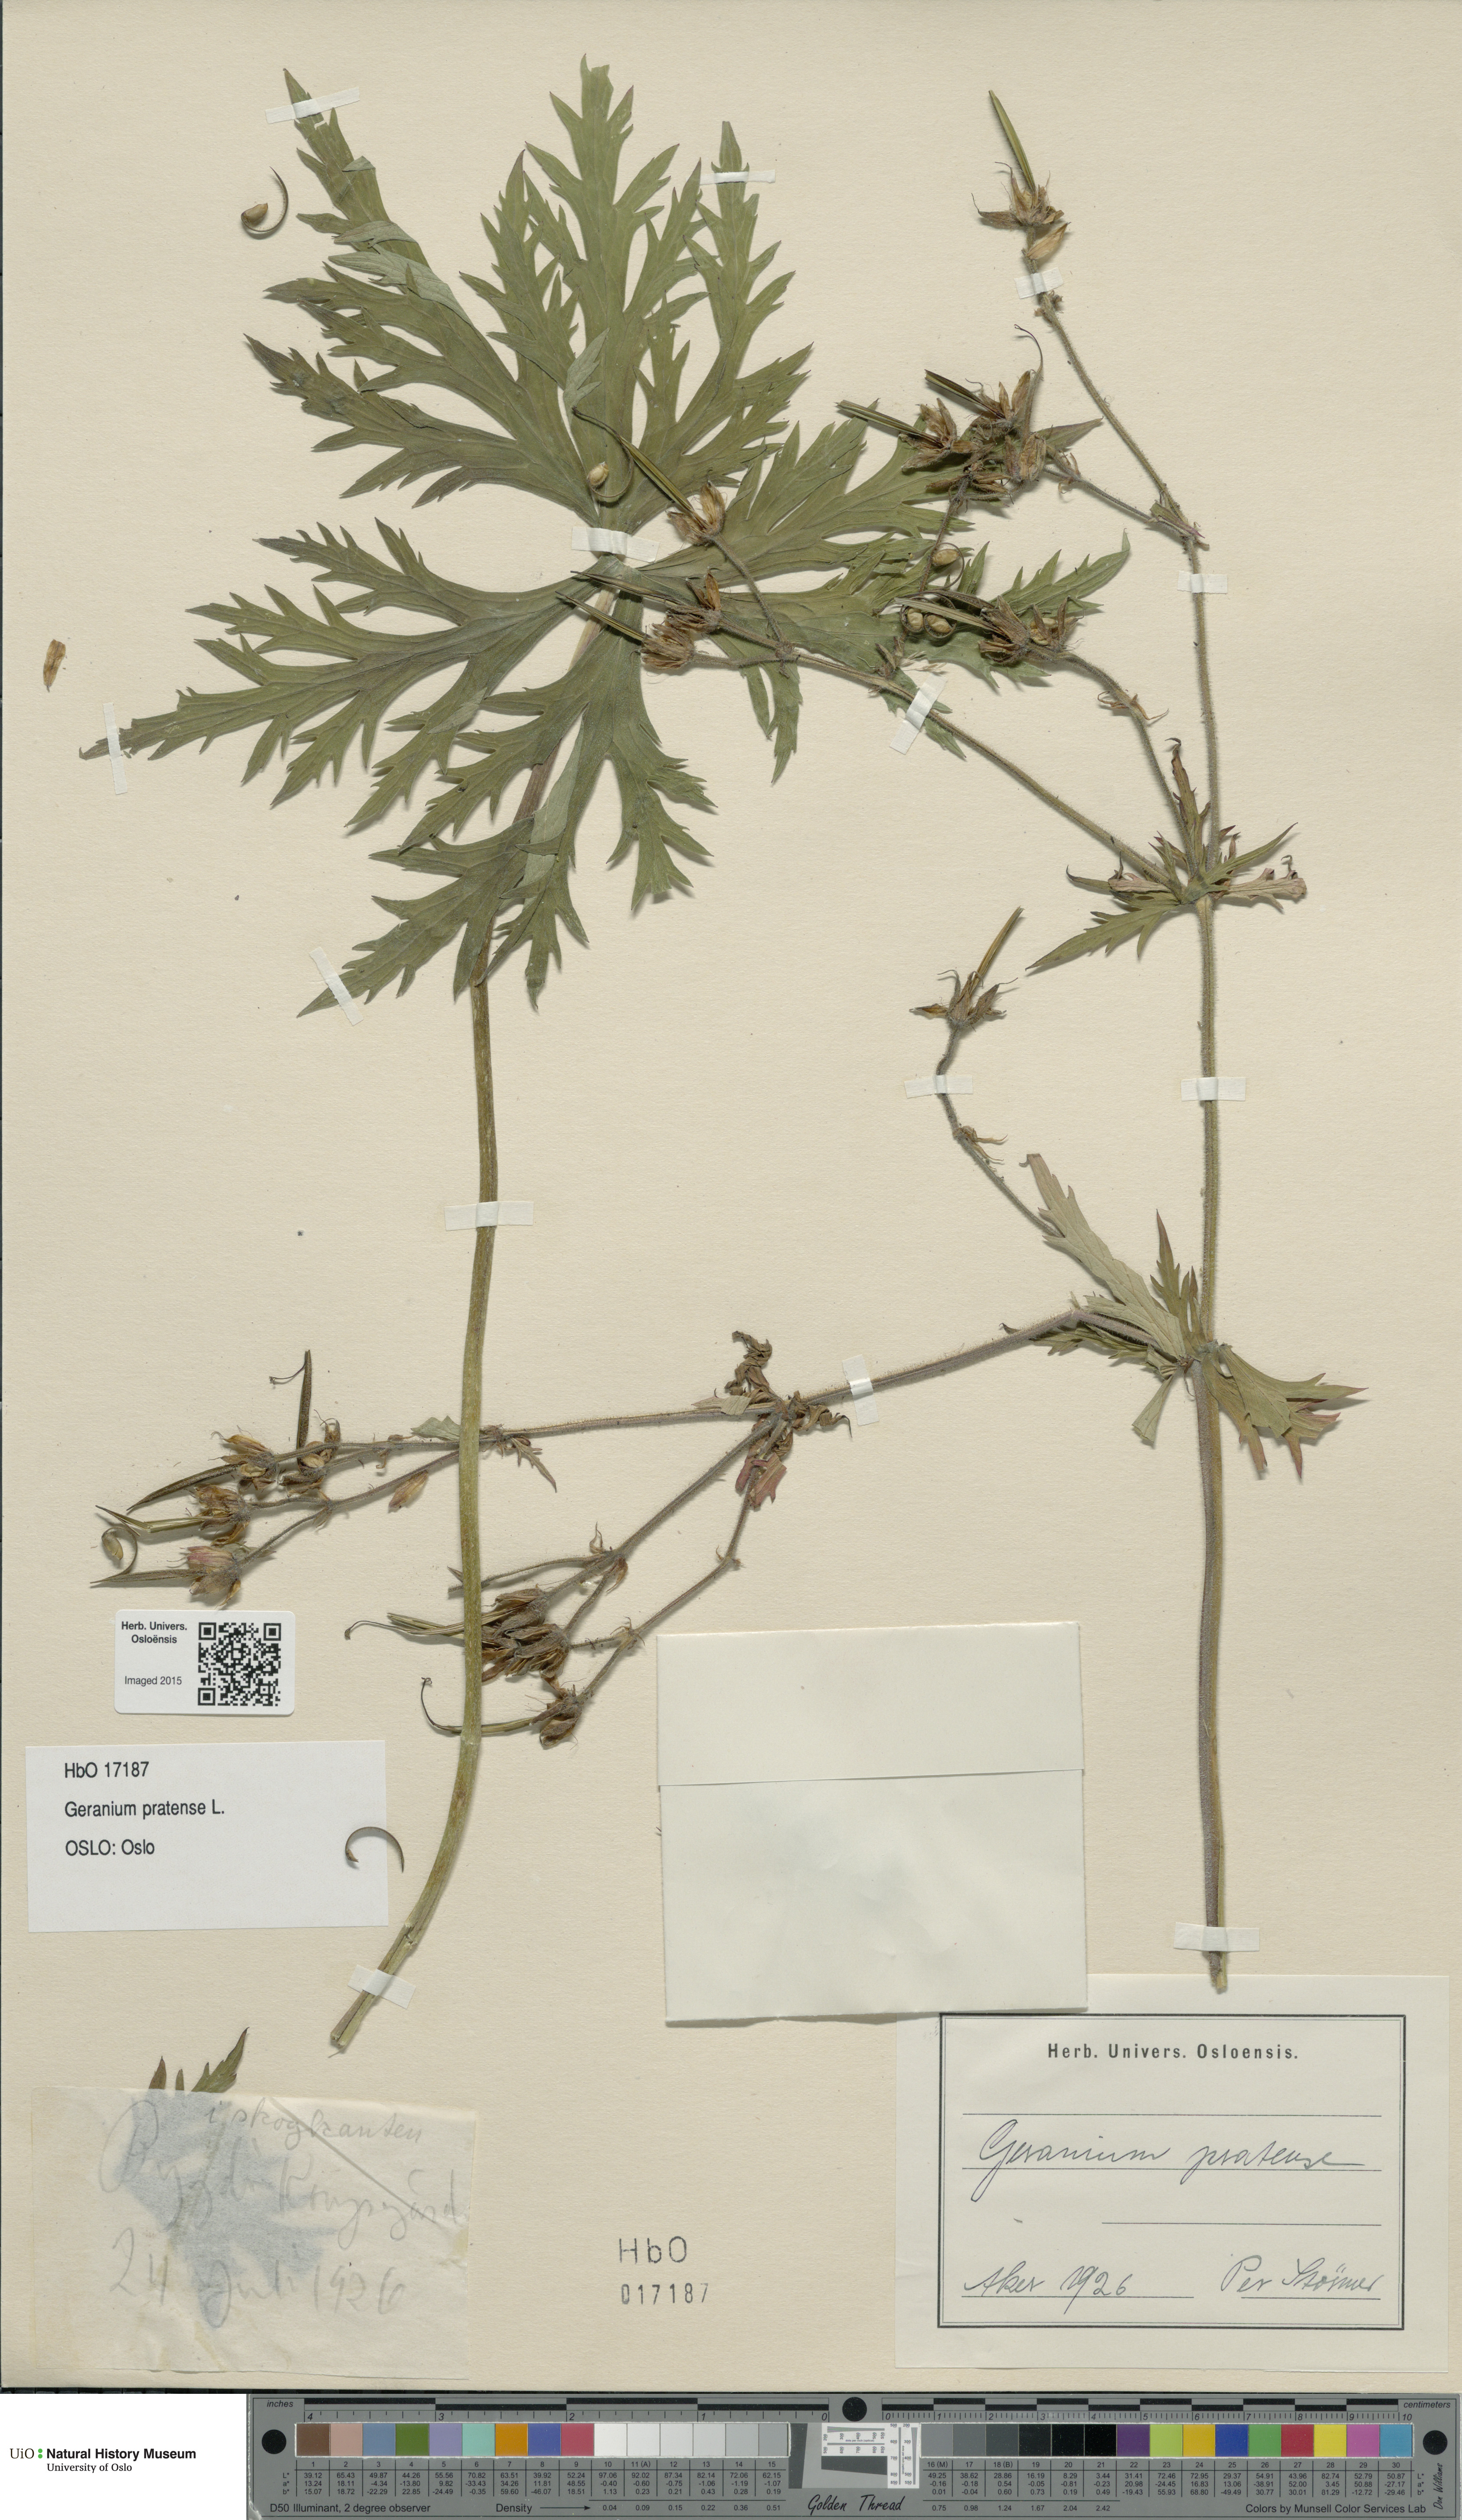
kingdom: Plantae
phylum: Tracheophyta
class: Magnoliopsida
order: Geraniales
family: Geraniaceae
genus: Geranium
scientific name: Geranium pratense
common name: Meadow crane's-bill
